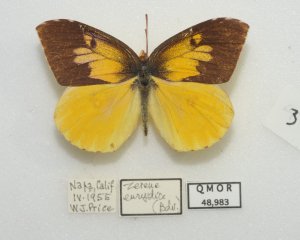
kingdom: Animalia
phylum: Arthropoda
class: Insecta
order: Lepidoptera
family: Pieridae
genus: Zerene
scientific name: Zerene eurydice
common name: California Dogface
